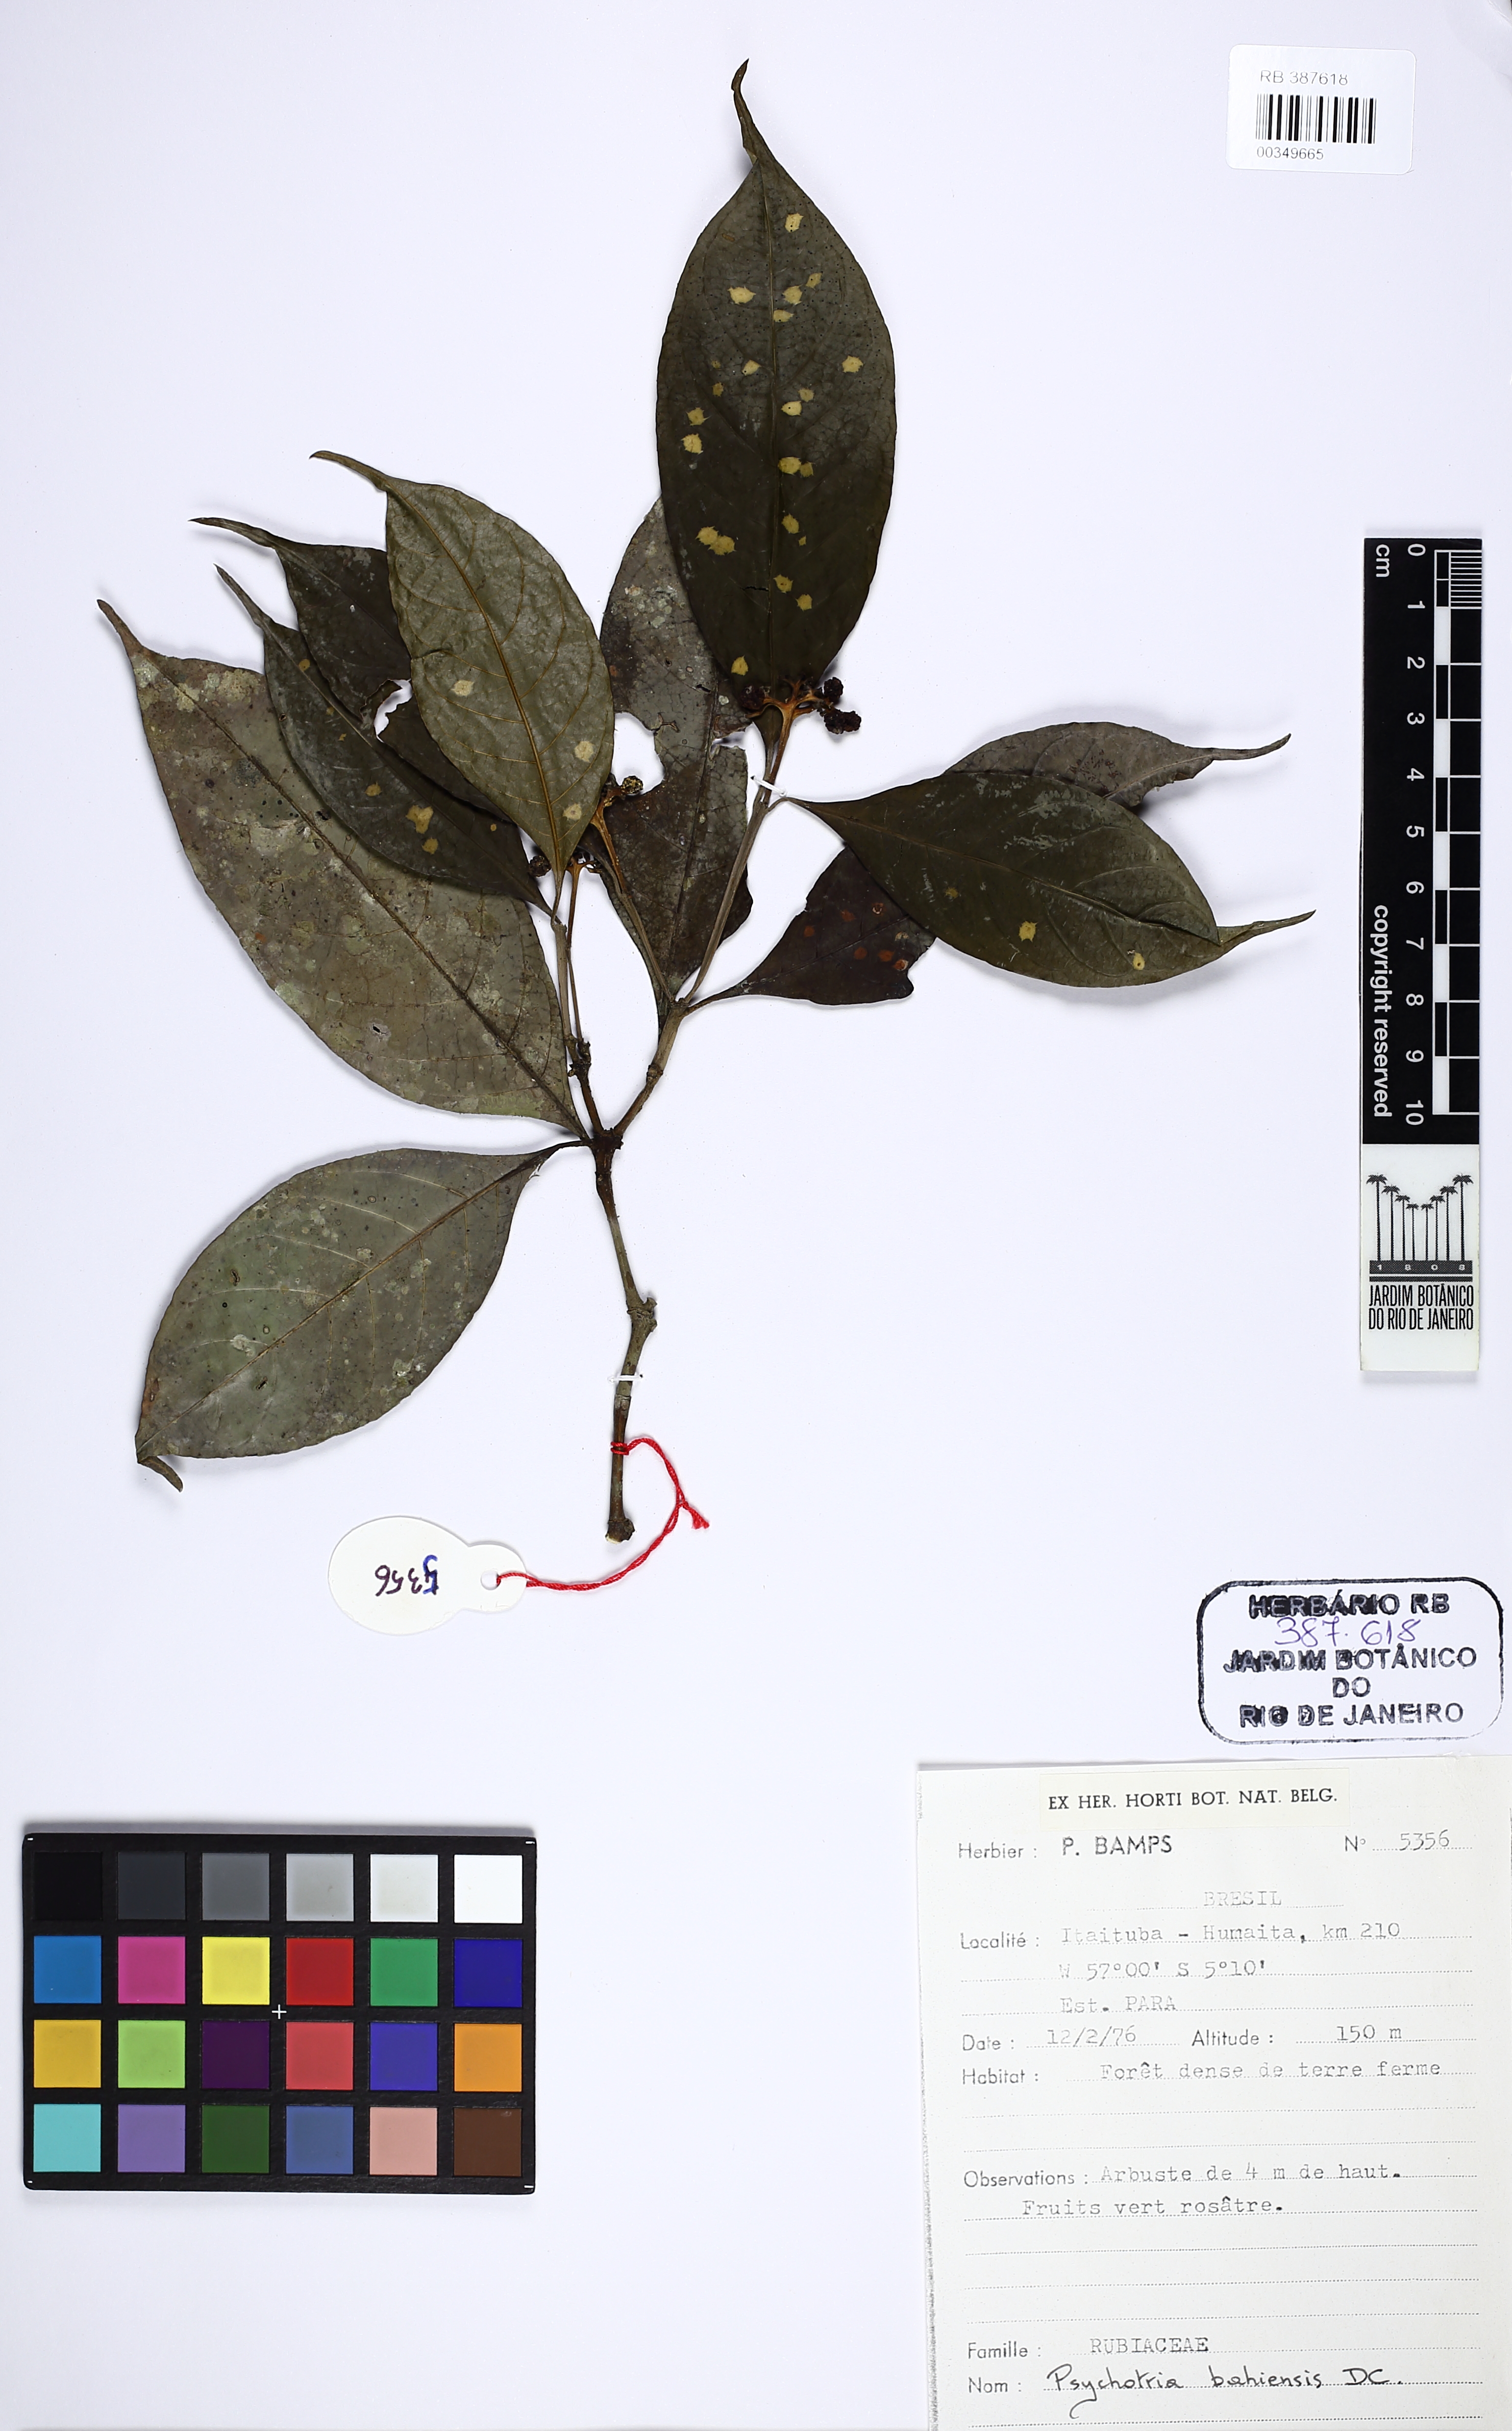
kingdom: Plantae
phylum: Tracheophyta
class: Magnoliopsida
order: Gentianales
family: Rubiaceae
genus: Psychotria
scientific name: Psychotria bahiensis
